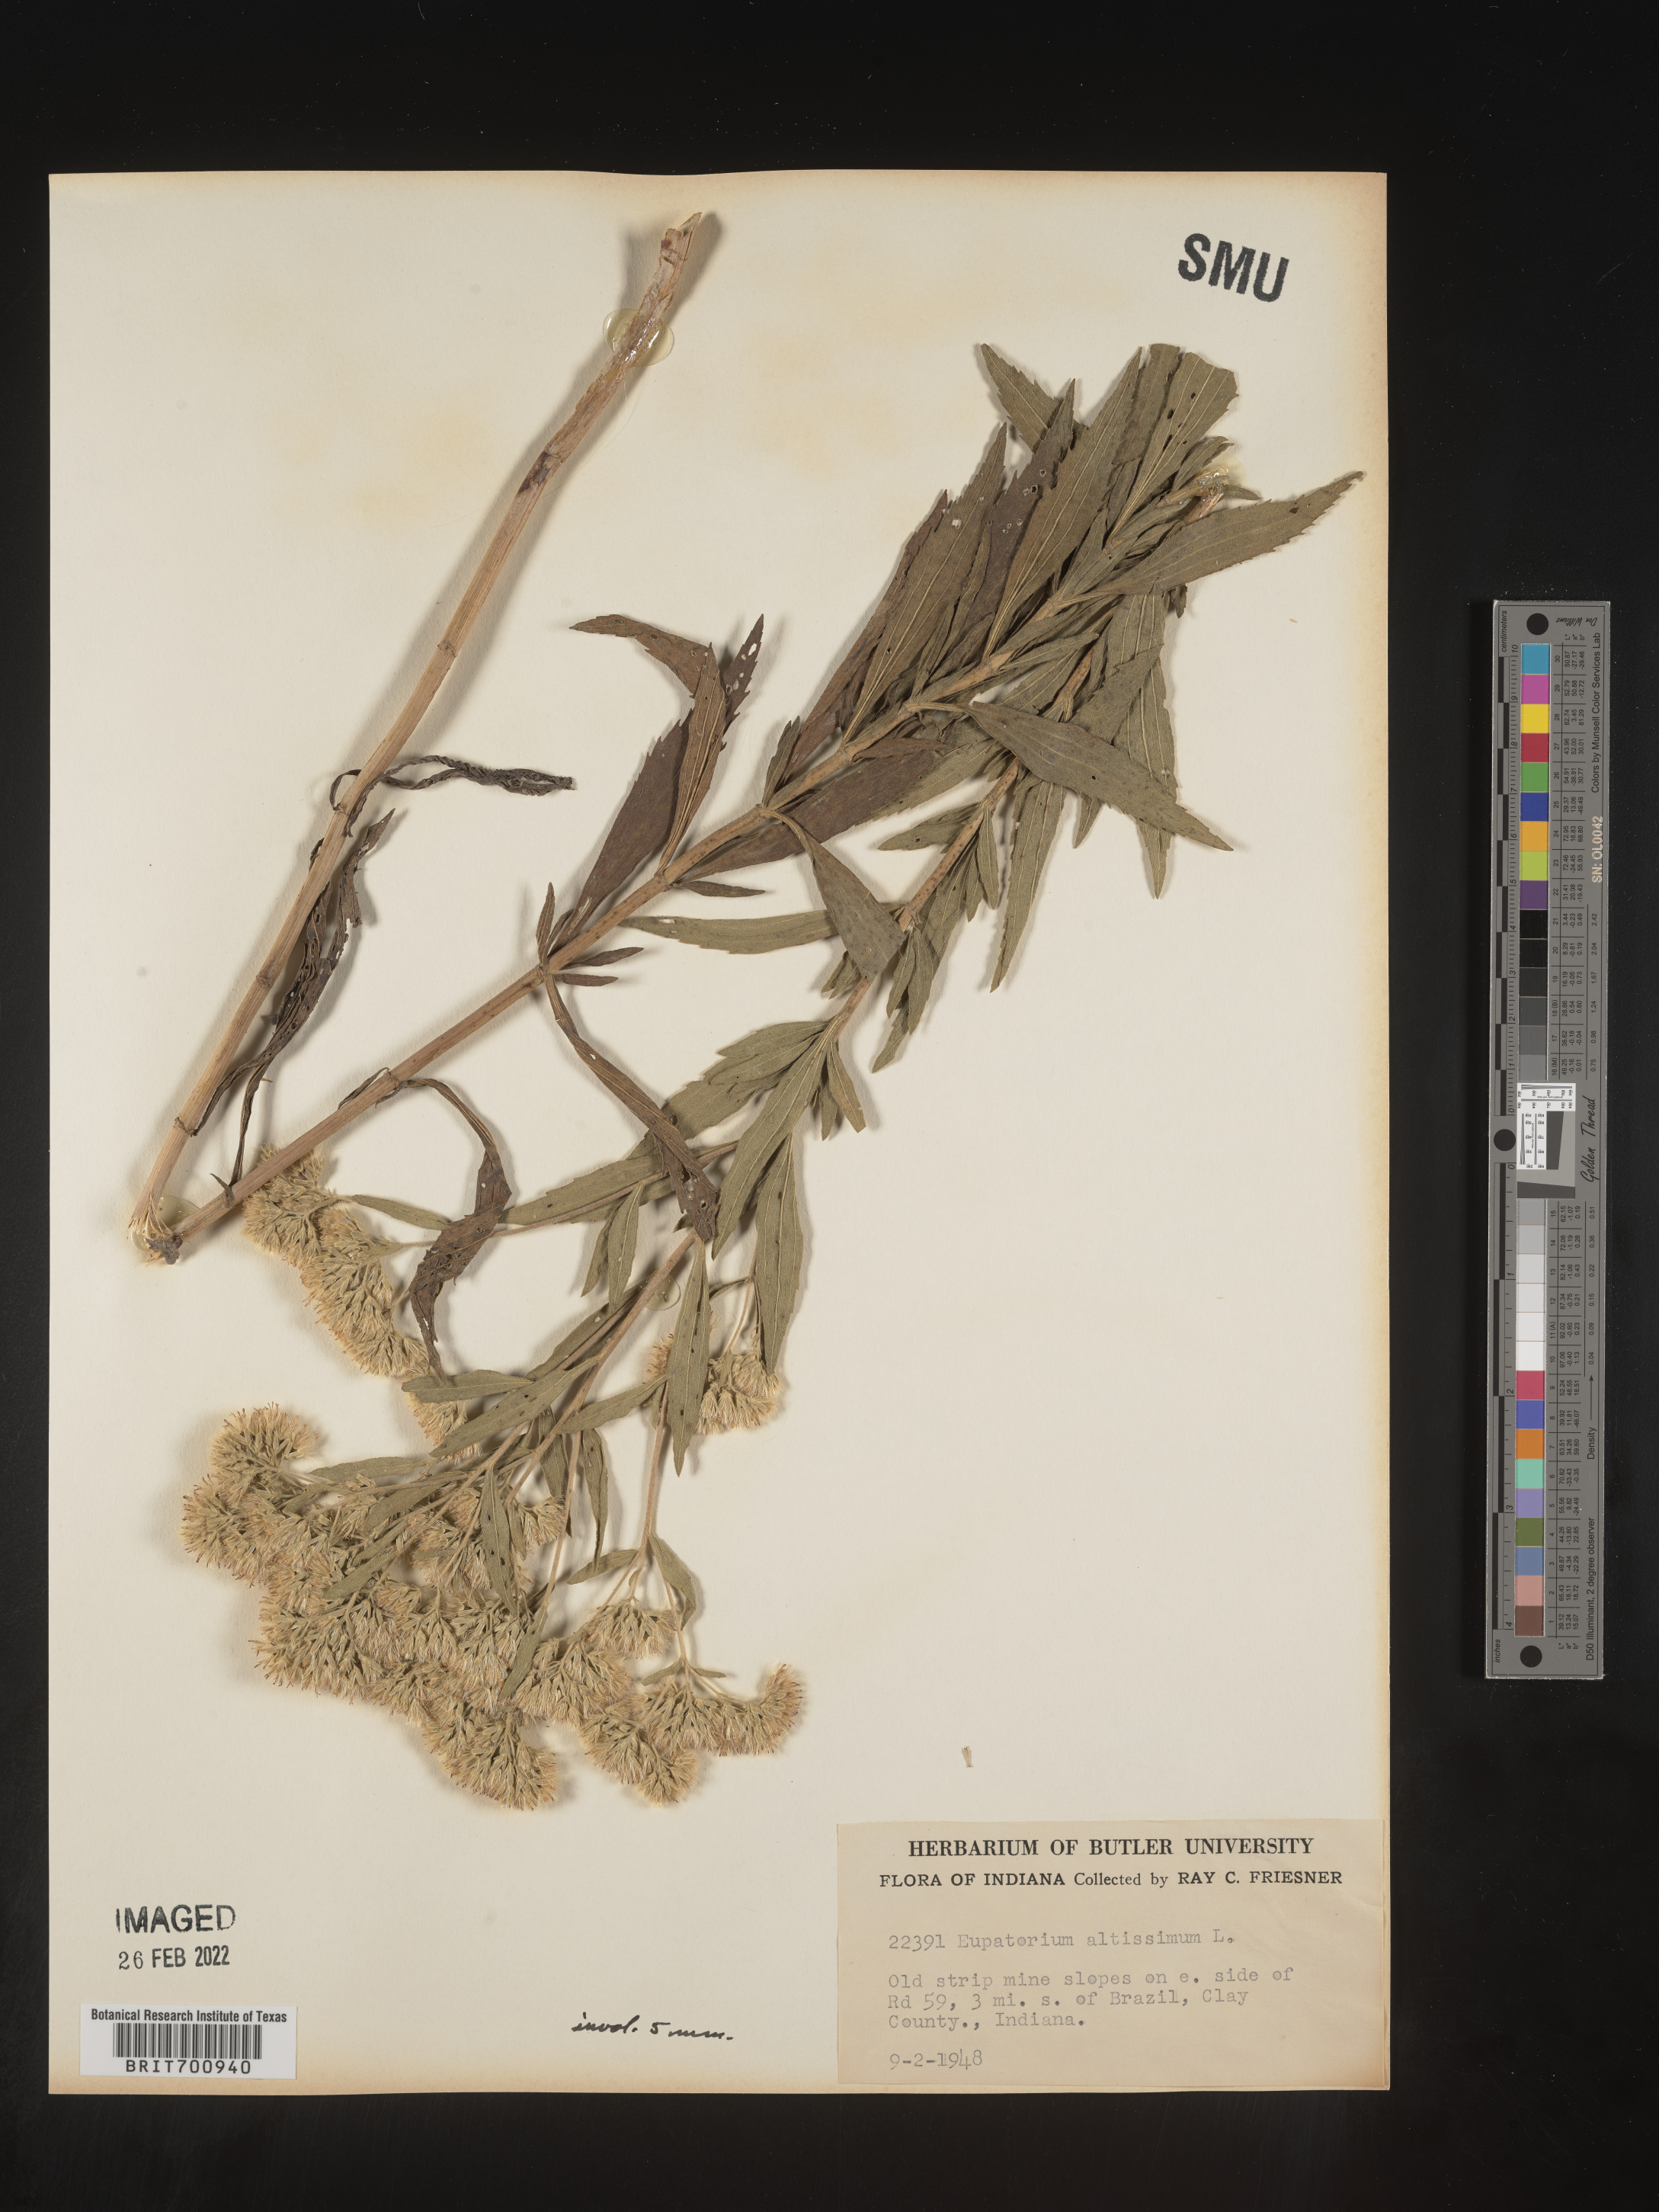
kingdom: Plantae
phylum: Tracheophyta
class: Magnoliopsida
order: Asterales
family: Asteraceae
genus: Eupatorium
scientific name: Eupatorium altissimum
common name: Tall thoroughwort
